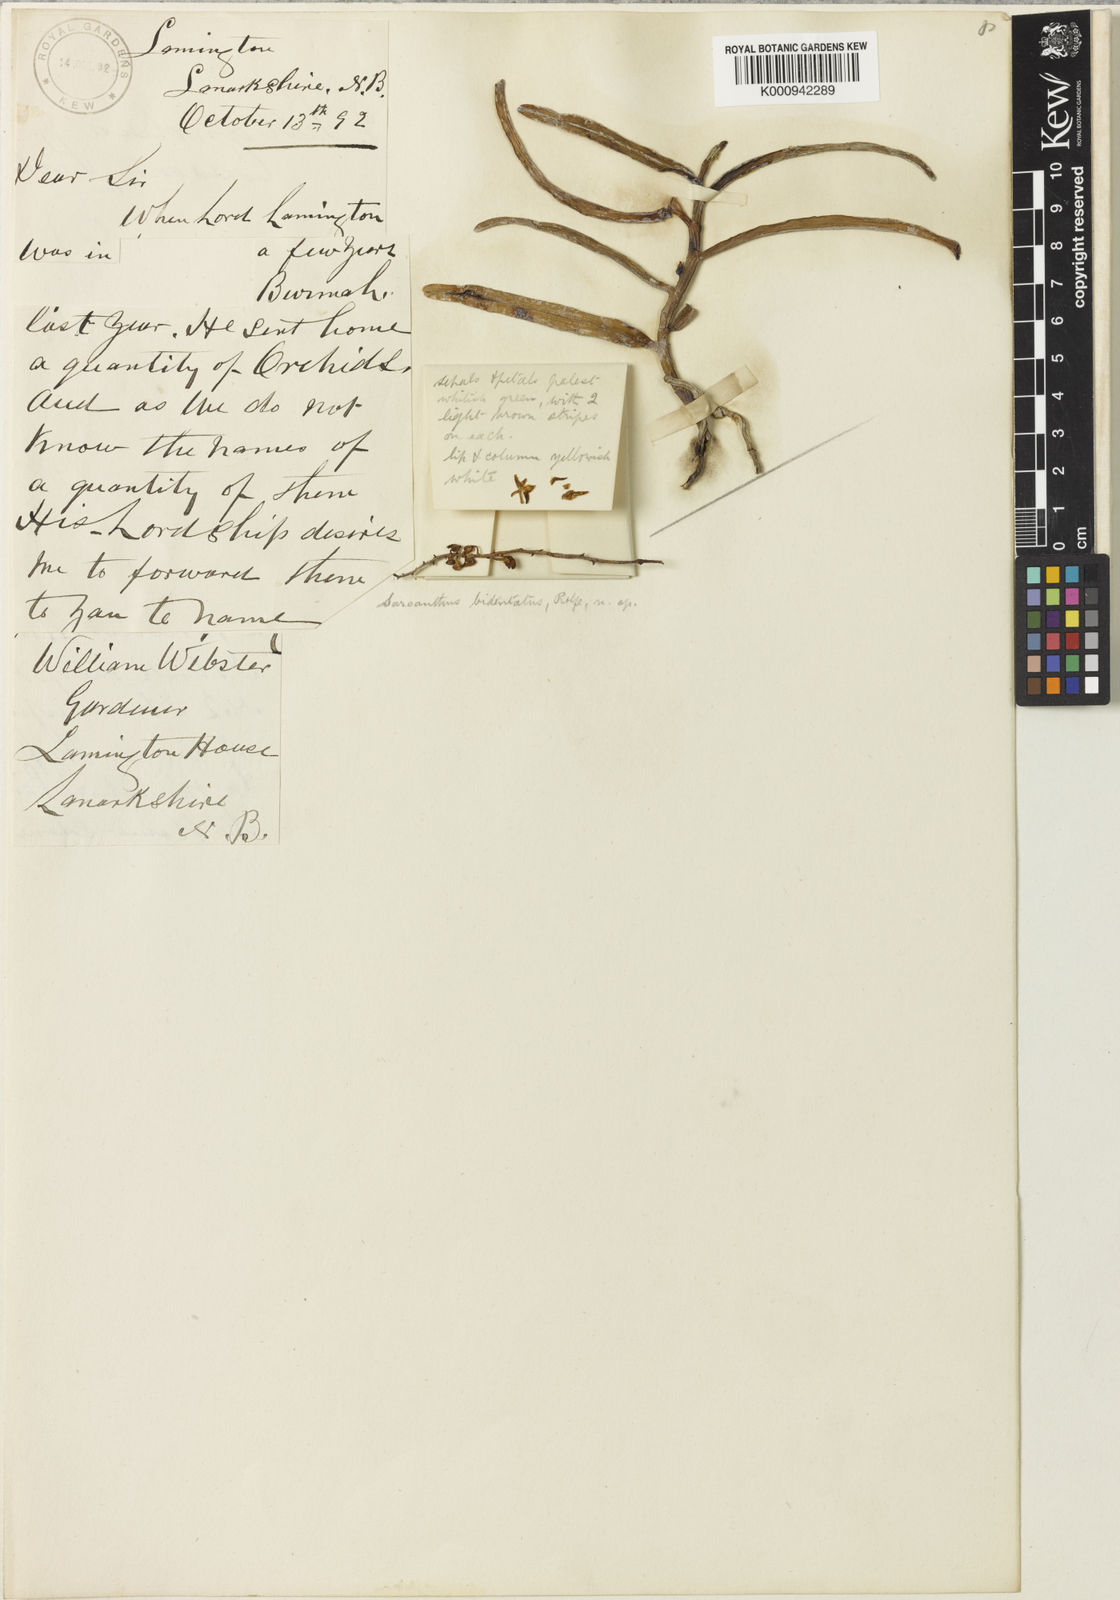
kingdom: Plantae
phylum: Tracheophyta
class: Liliopsida
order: Asparagales
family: Orchidaceae
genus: Cleisostoma
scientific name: Cleisostoma
